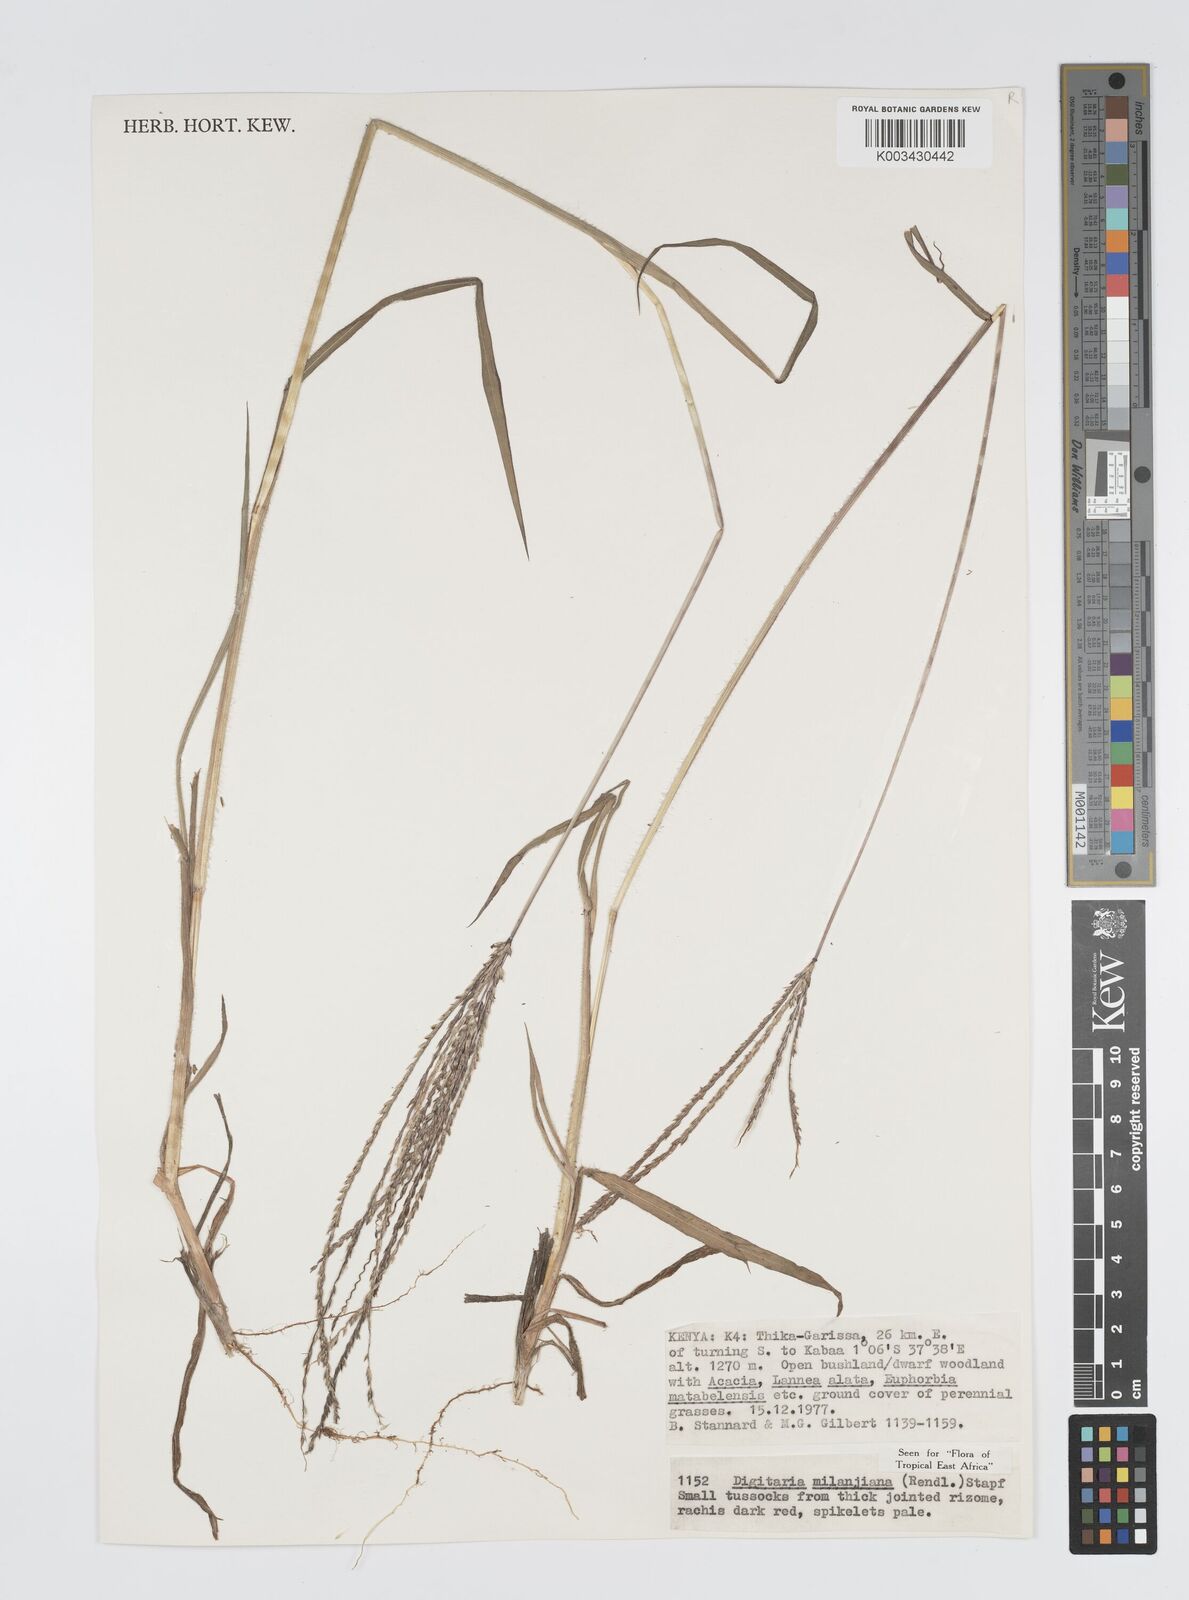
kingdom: Plantae
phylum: Tracheophyta
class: Liliopsida
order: Poales
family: Poaceae
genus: Digitaria
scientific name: Digitaria milanjiana
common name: Madagascar crabgrass
